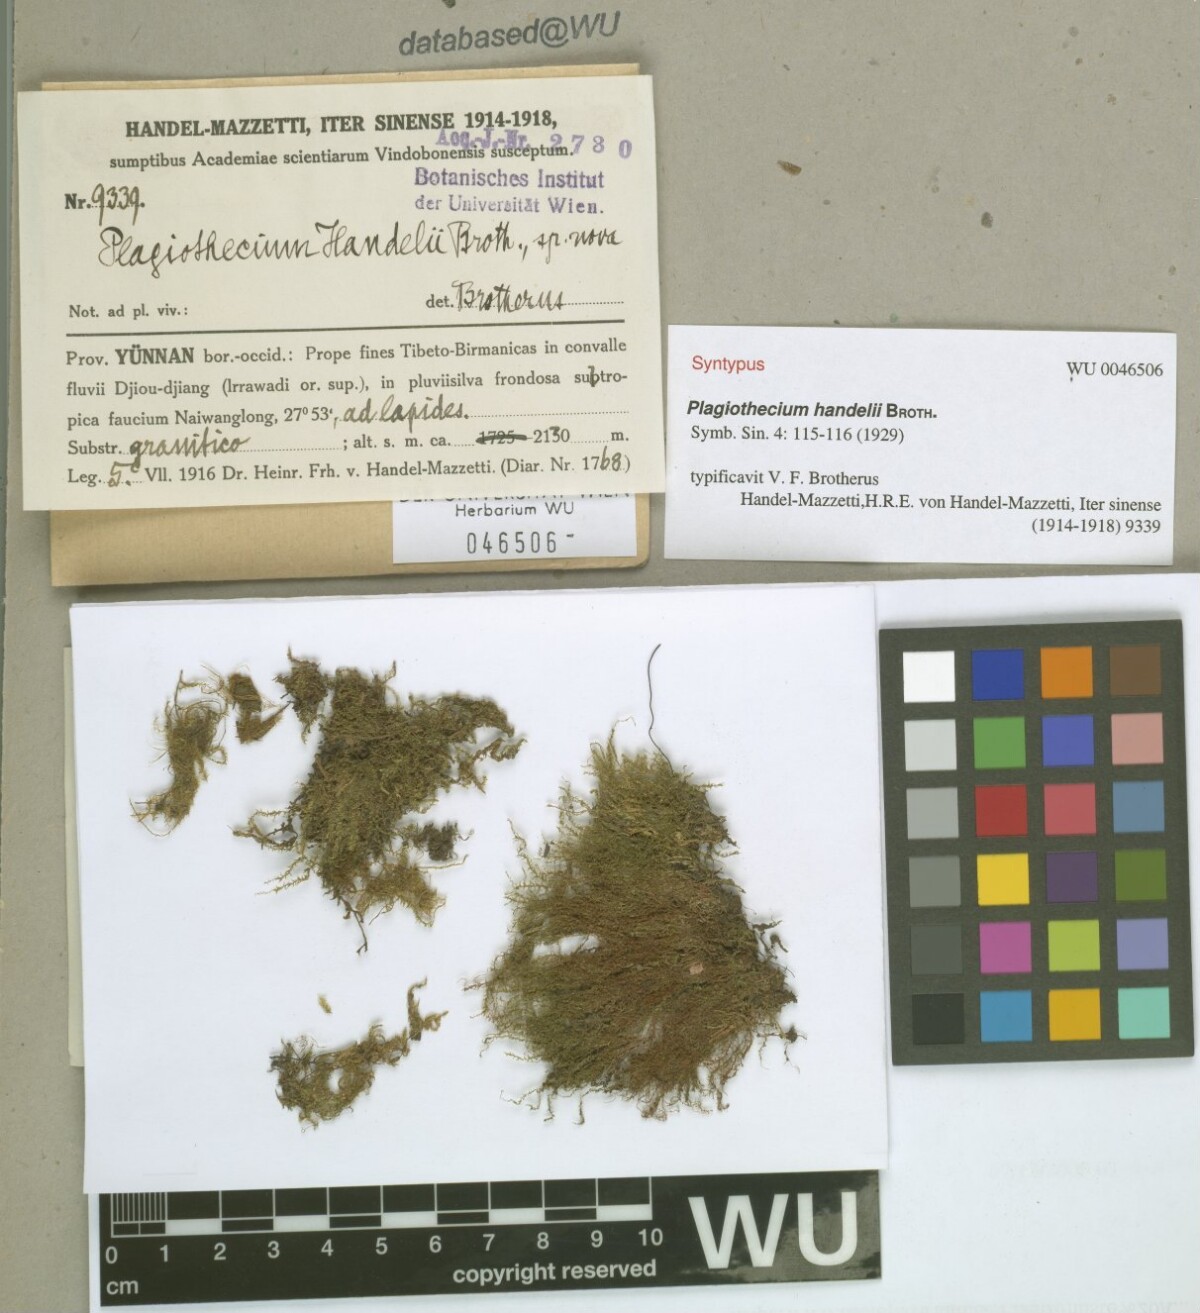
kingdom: Plantae
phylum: Bryophyta
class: Bryopsida
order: Hypnales
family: Plagiotheciaceae
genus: Ortholimnobium
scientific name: Ortholimnobium handelii
